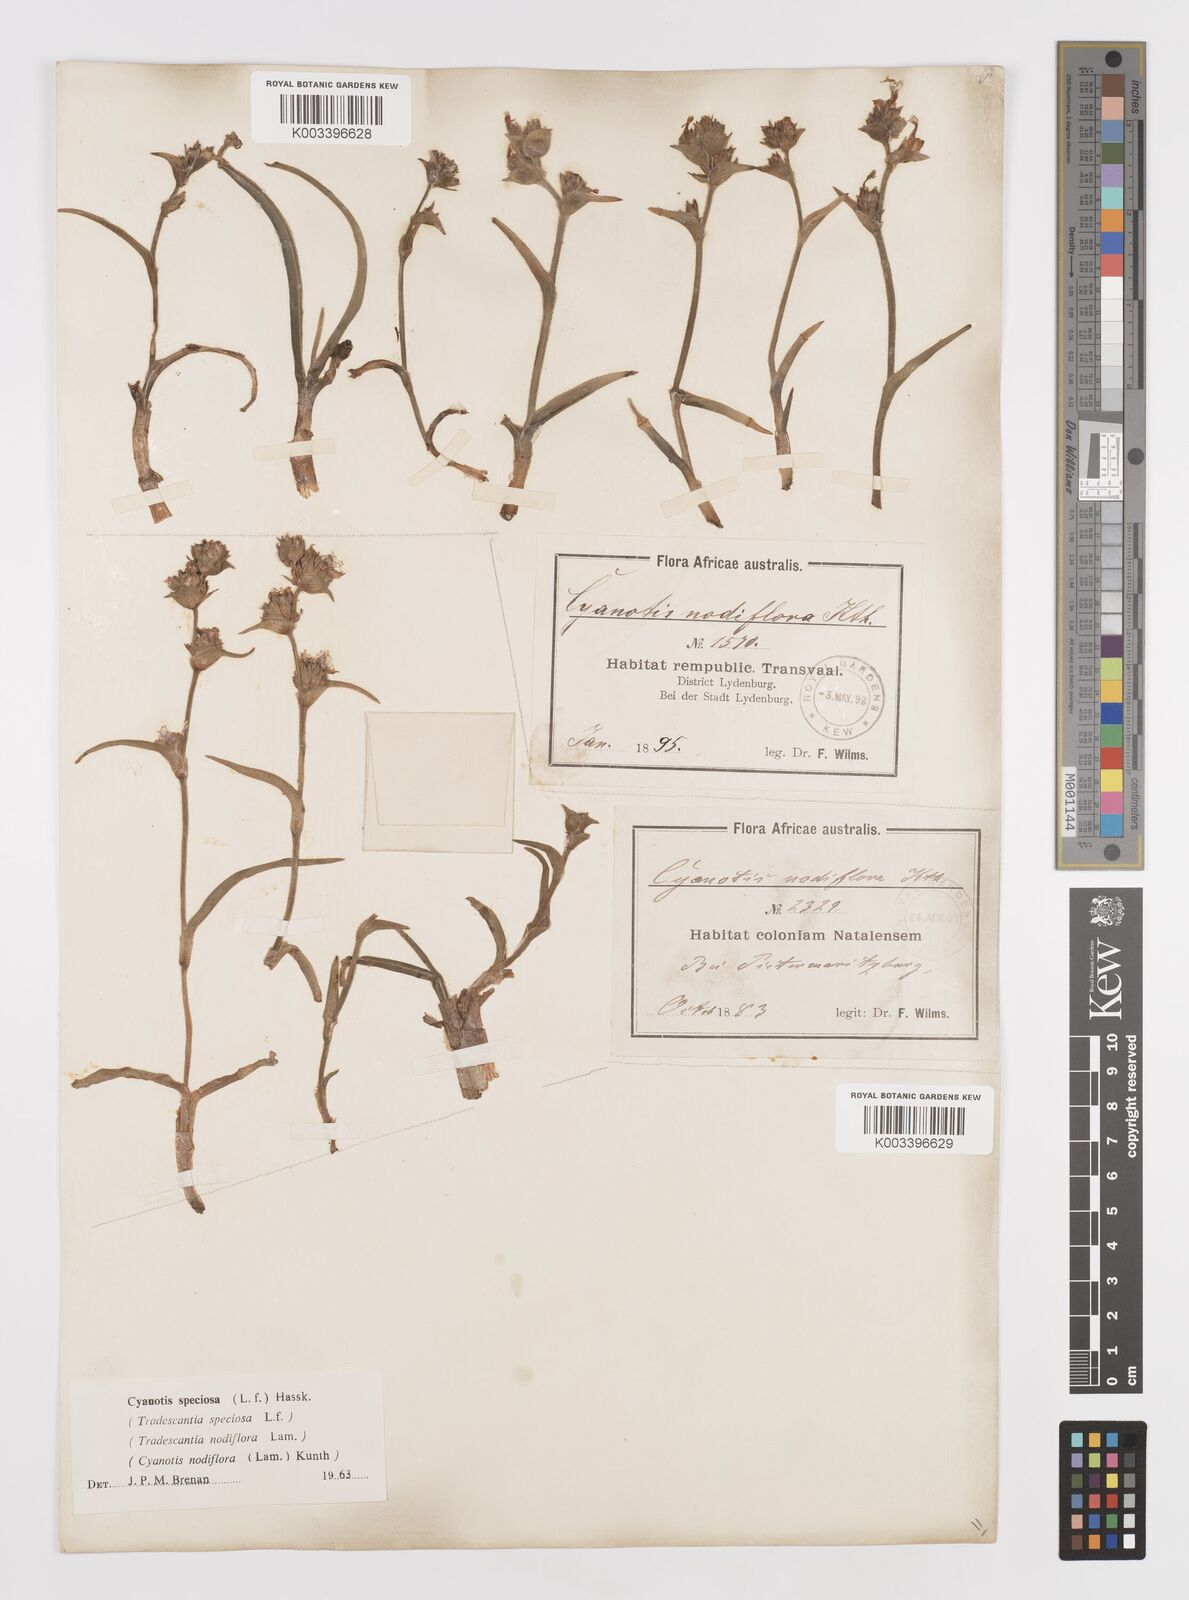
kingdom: Plantae
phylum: Tracheophyta
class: Liliopsida
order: Commelinales
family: Commelinaceae
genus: Cyanotis
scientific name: Cyanotis speciosa
